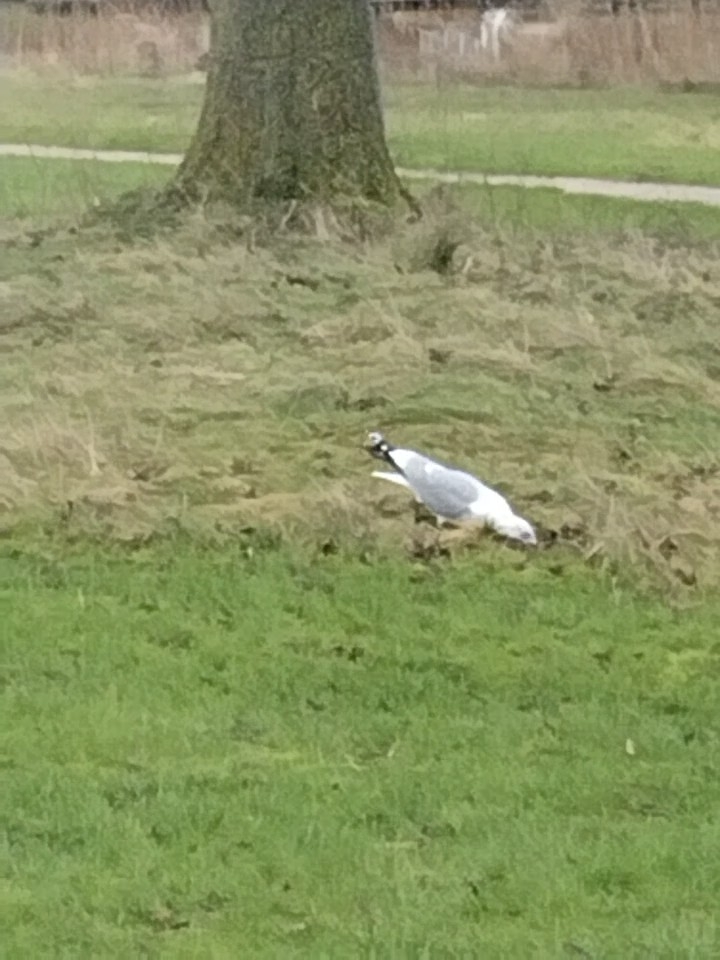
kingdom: Animalia
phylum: Chordata
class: Aves
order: Charadriiformes
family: Laridae
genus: Larus
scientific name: Larus canus
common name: Stormmåge
